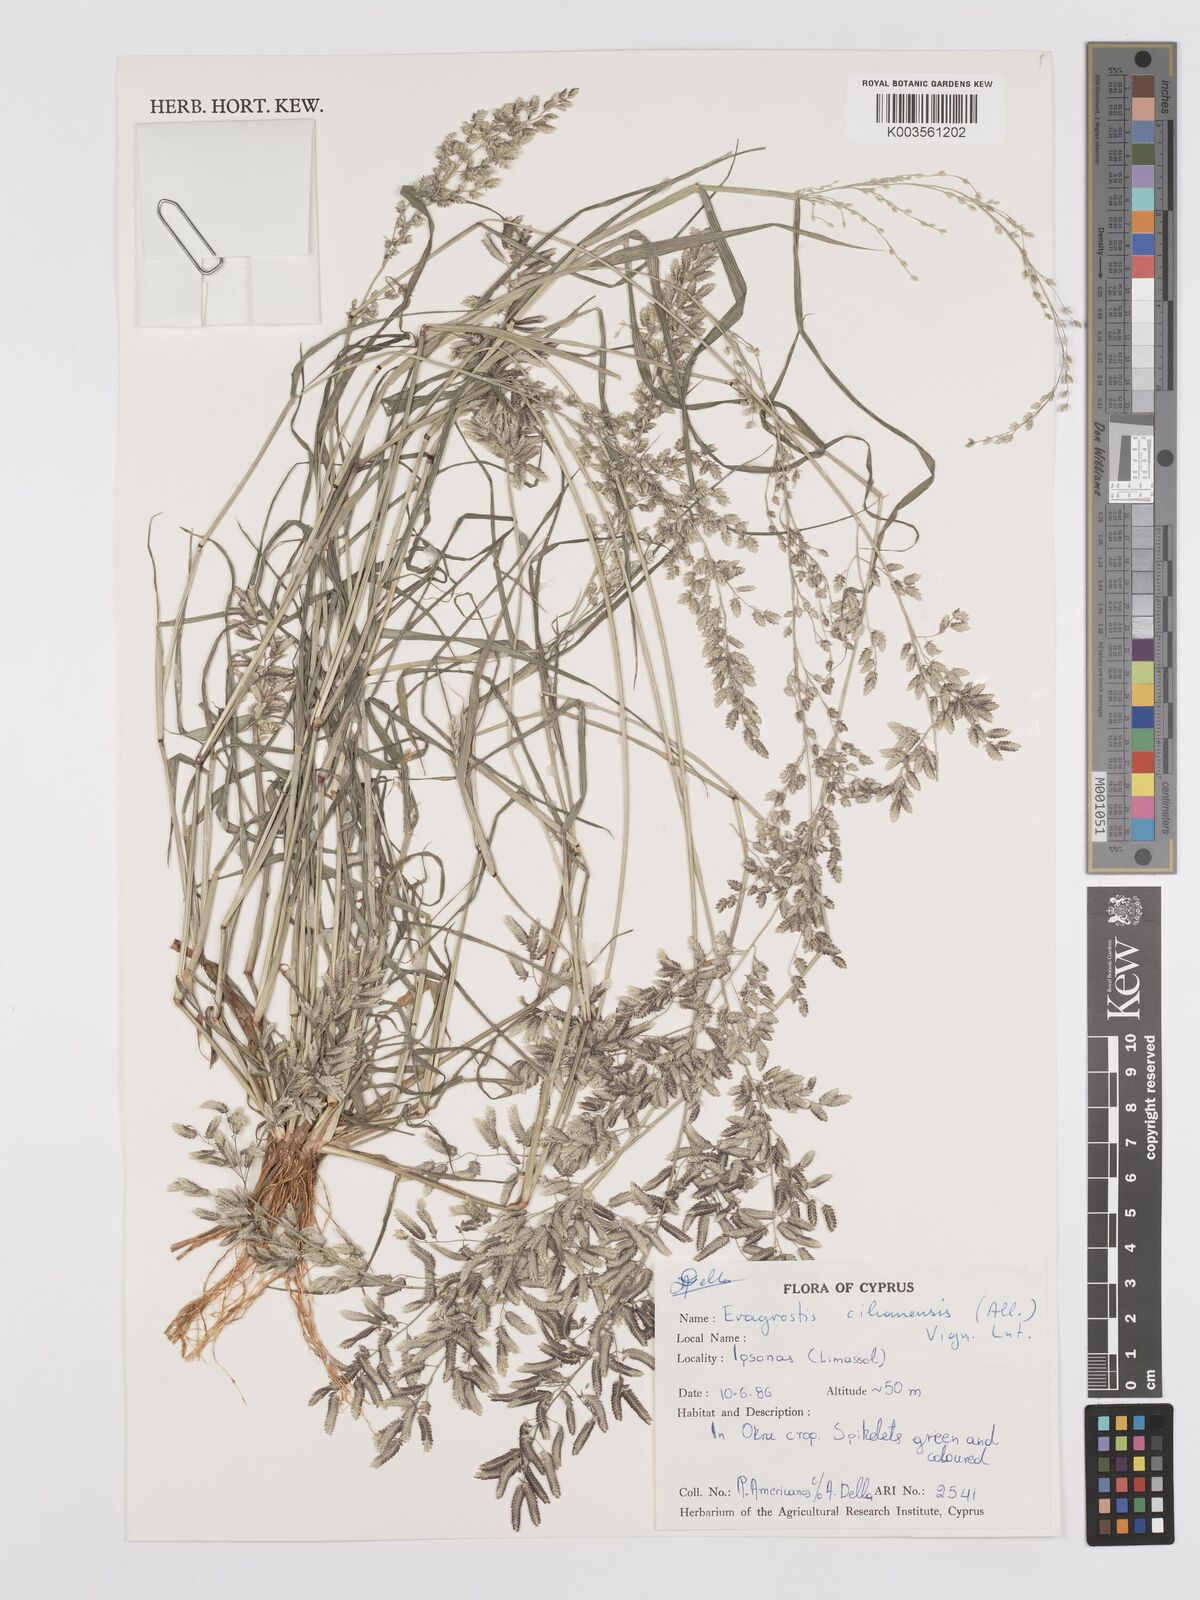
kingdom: Plantae
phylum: Tracheophyta
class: Liliopsida
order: Poales
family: Poaceae
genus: Eragrostis
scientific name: Eragrostis cilianensis
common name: Stinkgrass
